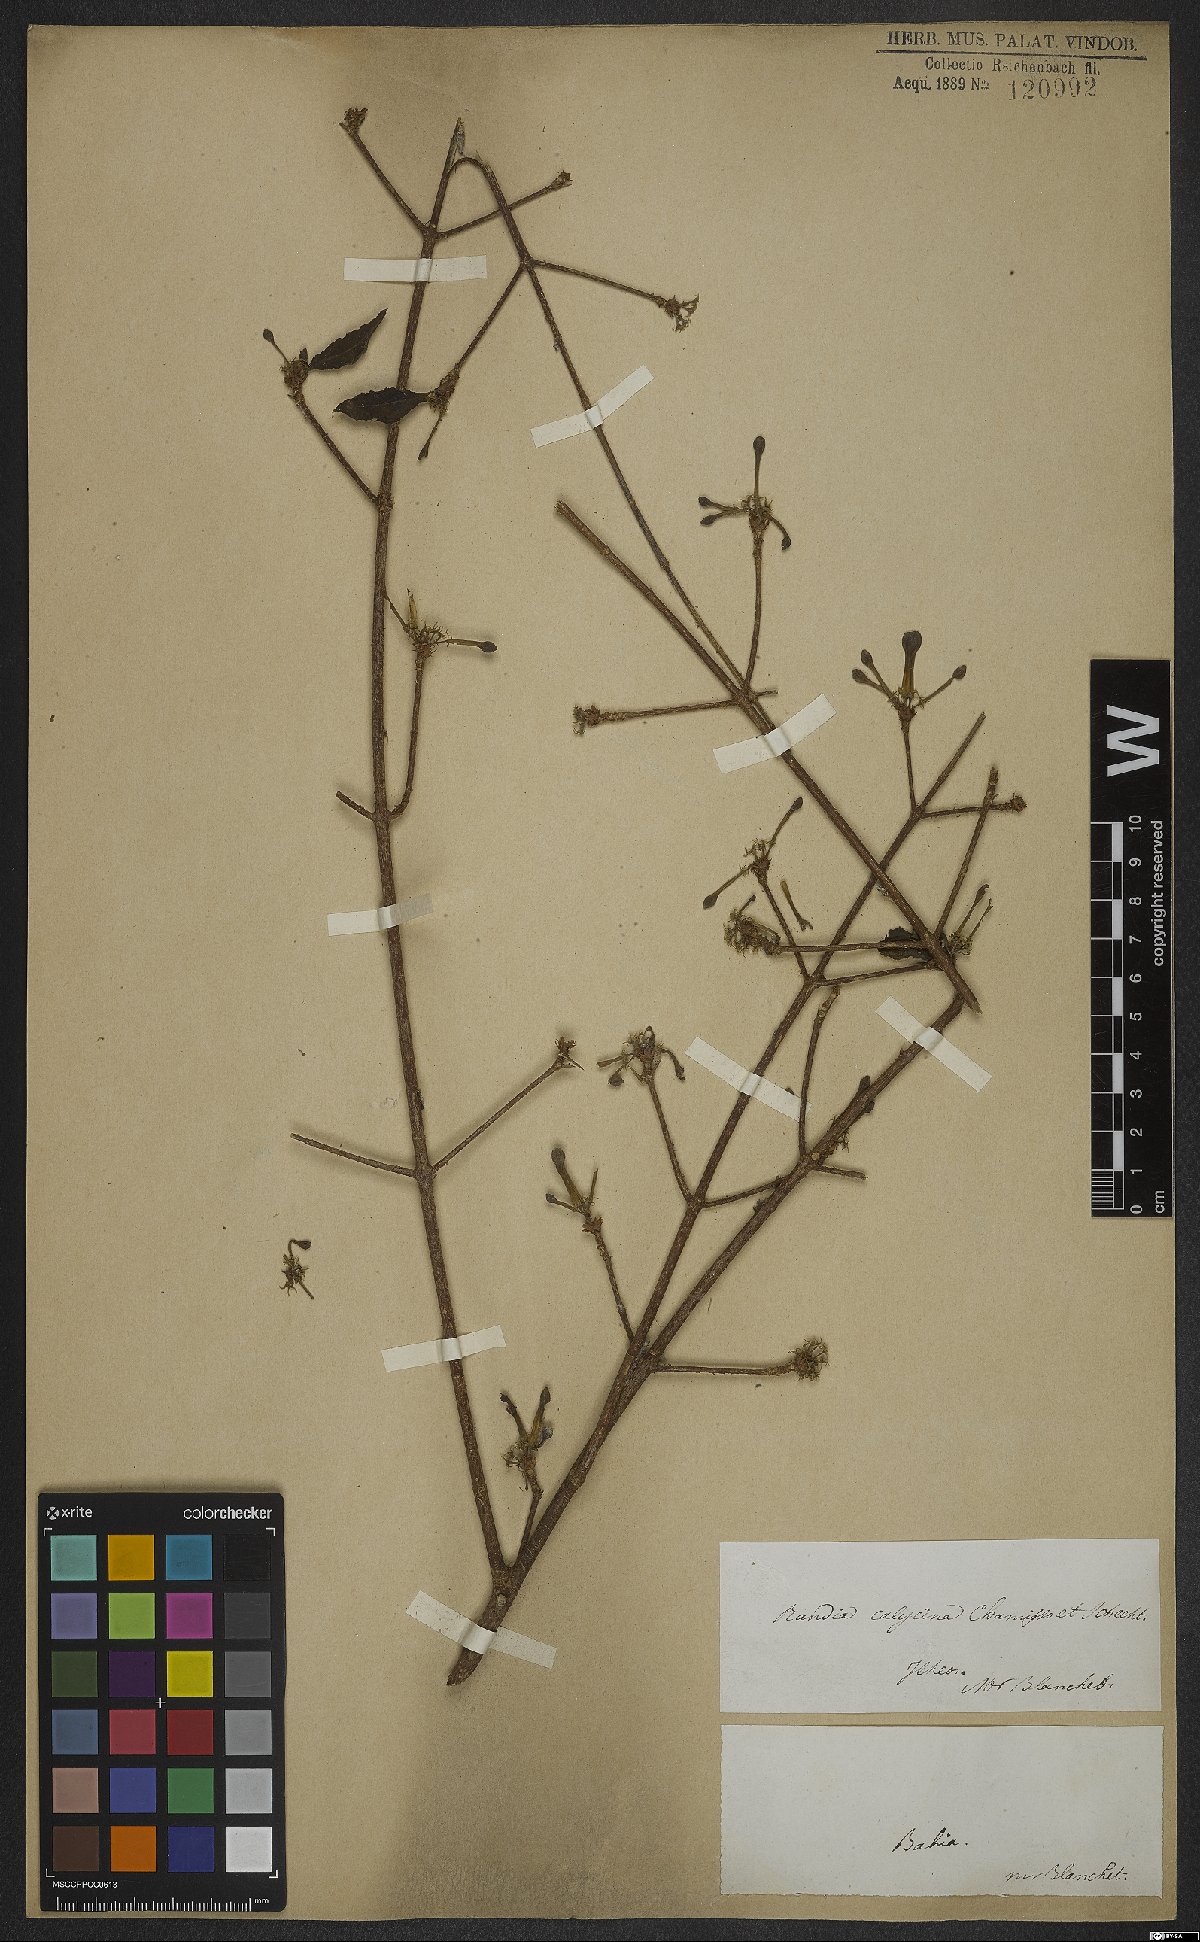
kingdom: Plantae
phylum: Tracheophyta
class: Magnoliopsida
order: Gentianales
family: Rubiaceae
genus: Randia
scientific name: Randia calycina
